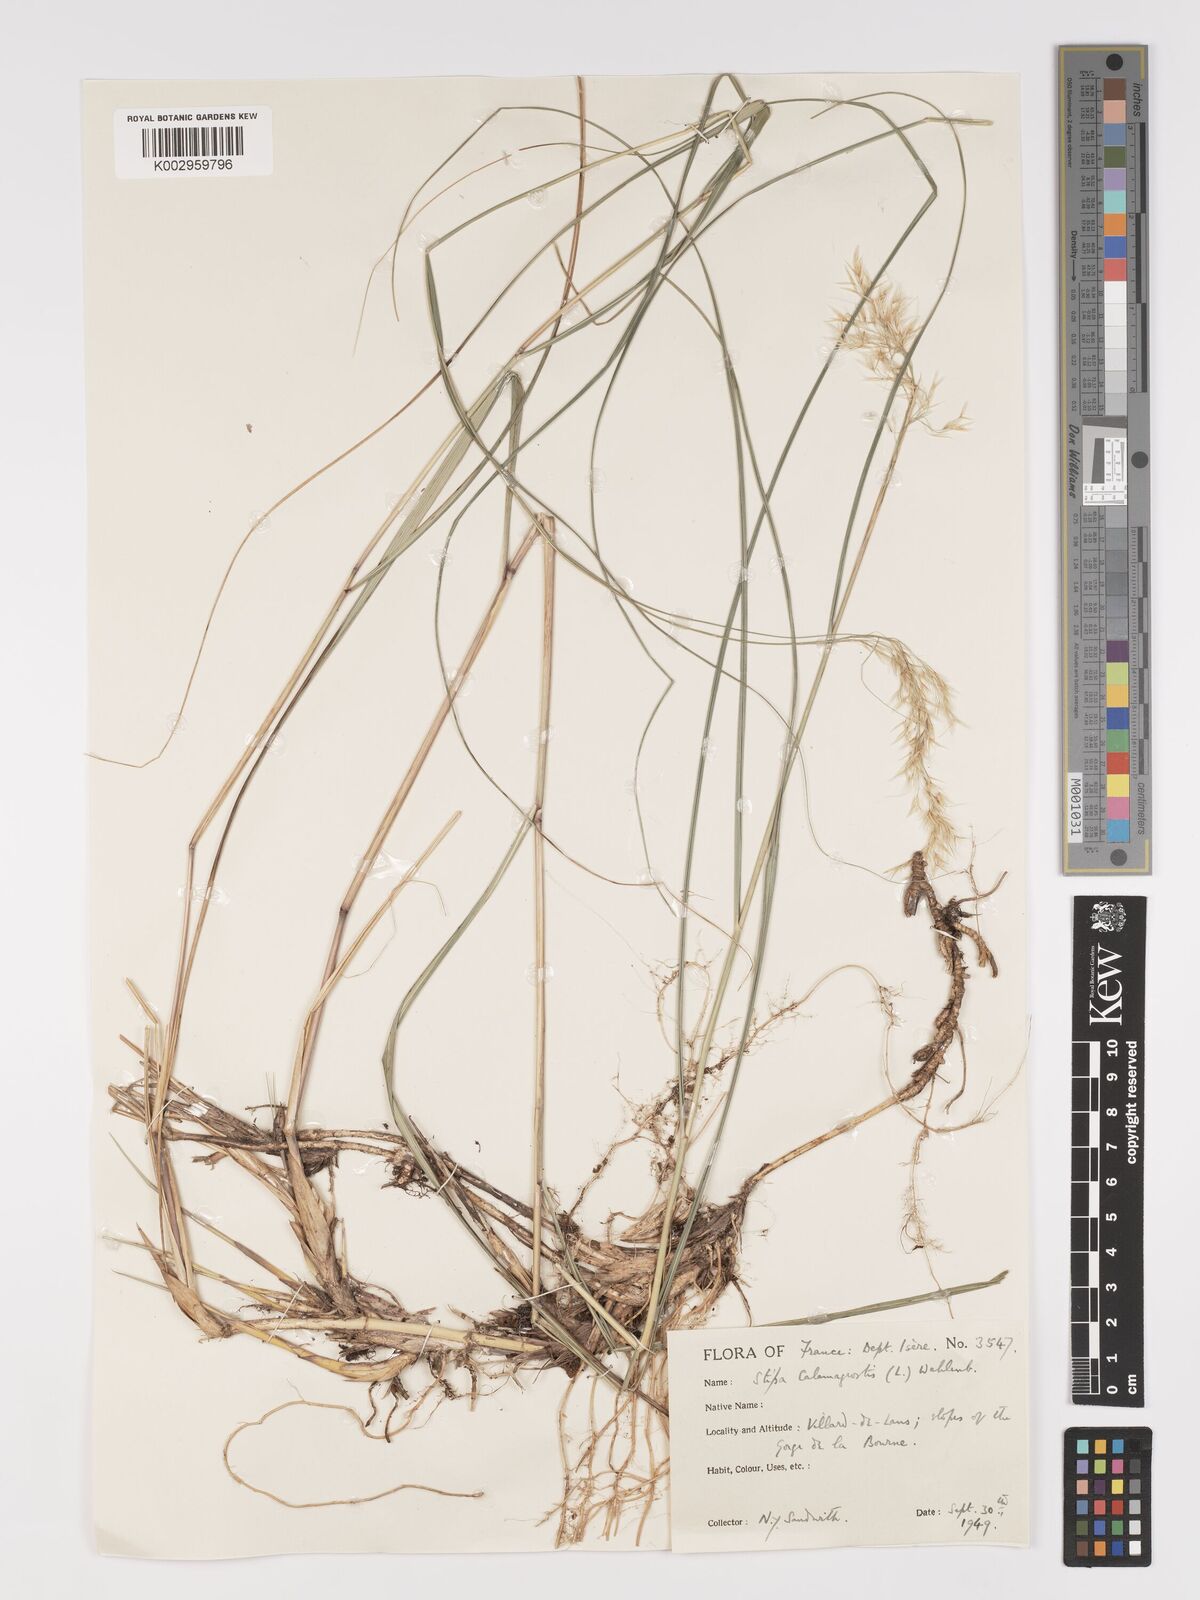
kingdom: Plantae
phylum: Tracheophyta
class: Liliopsida
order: Poales
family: Poaceae
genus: Achnatherum
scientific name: Achnatherum calamagrostis
